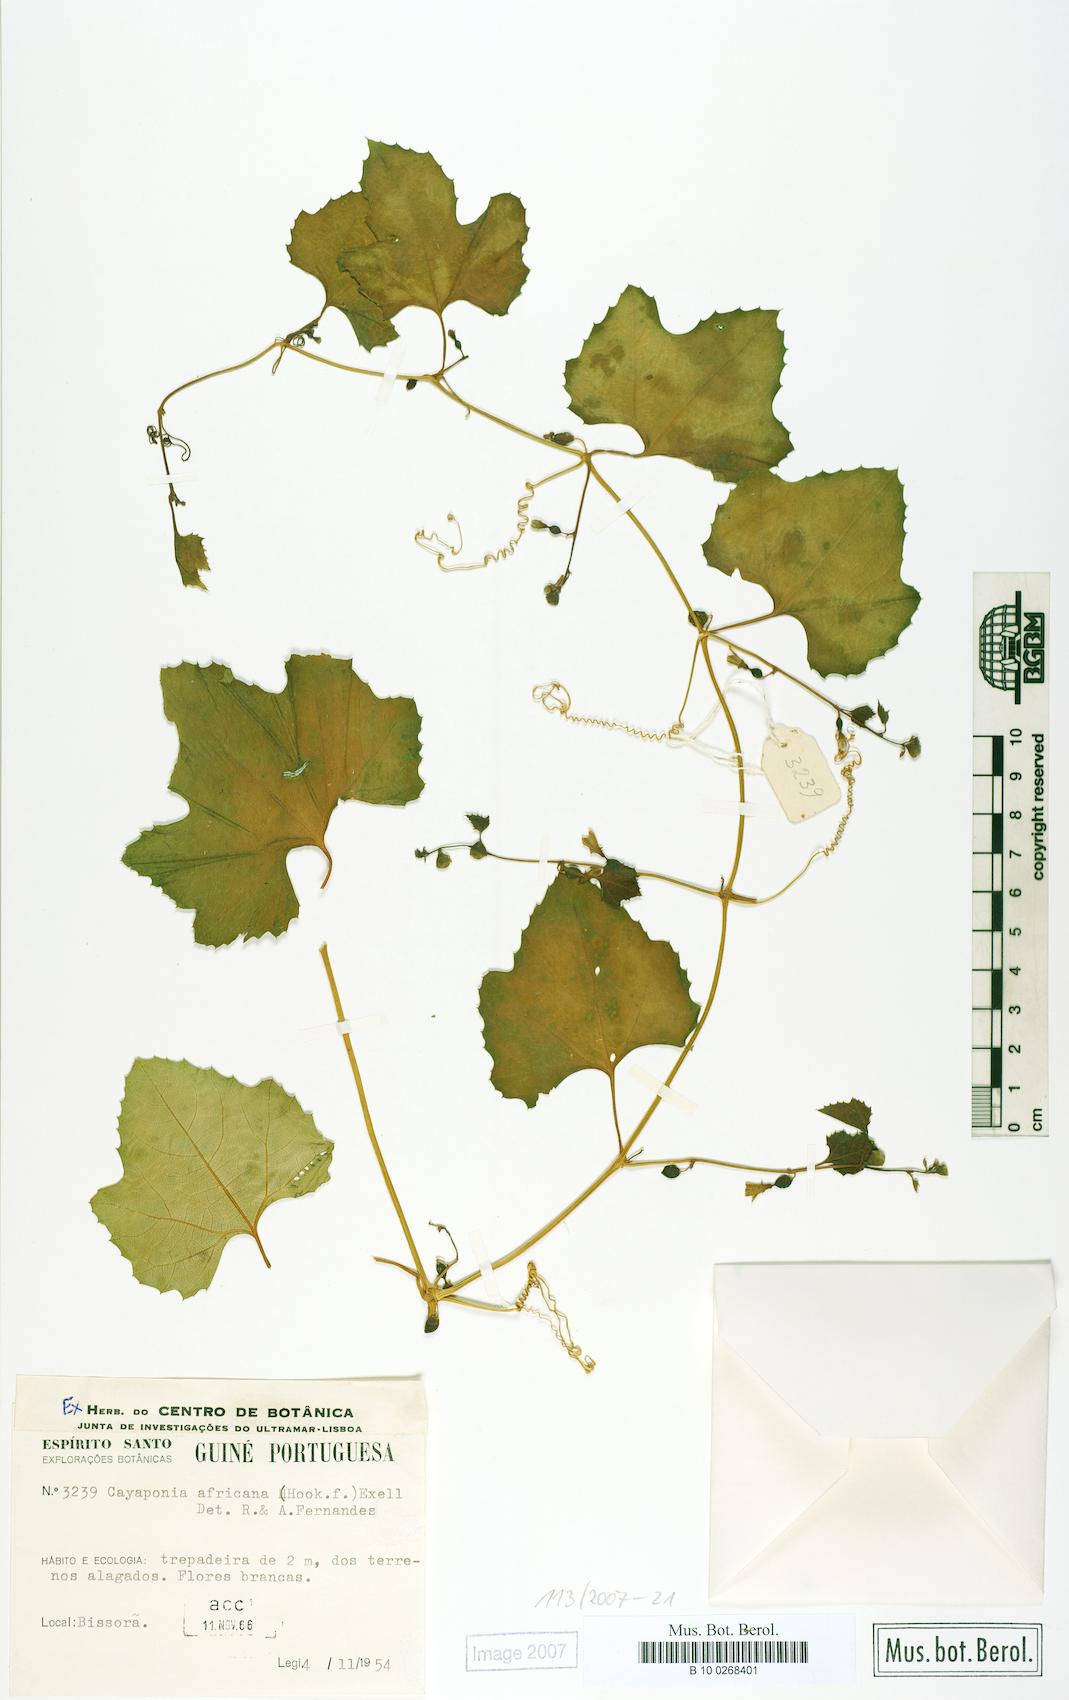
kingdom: Plantae
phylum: Tracheophyta
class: Magnoliopsida
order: Cucurbitales
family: Cucurbitaceae
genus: Cayaponia
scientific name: Cayaponia africana
